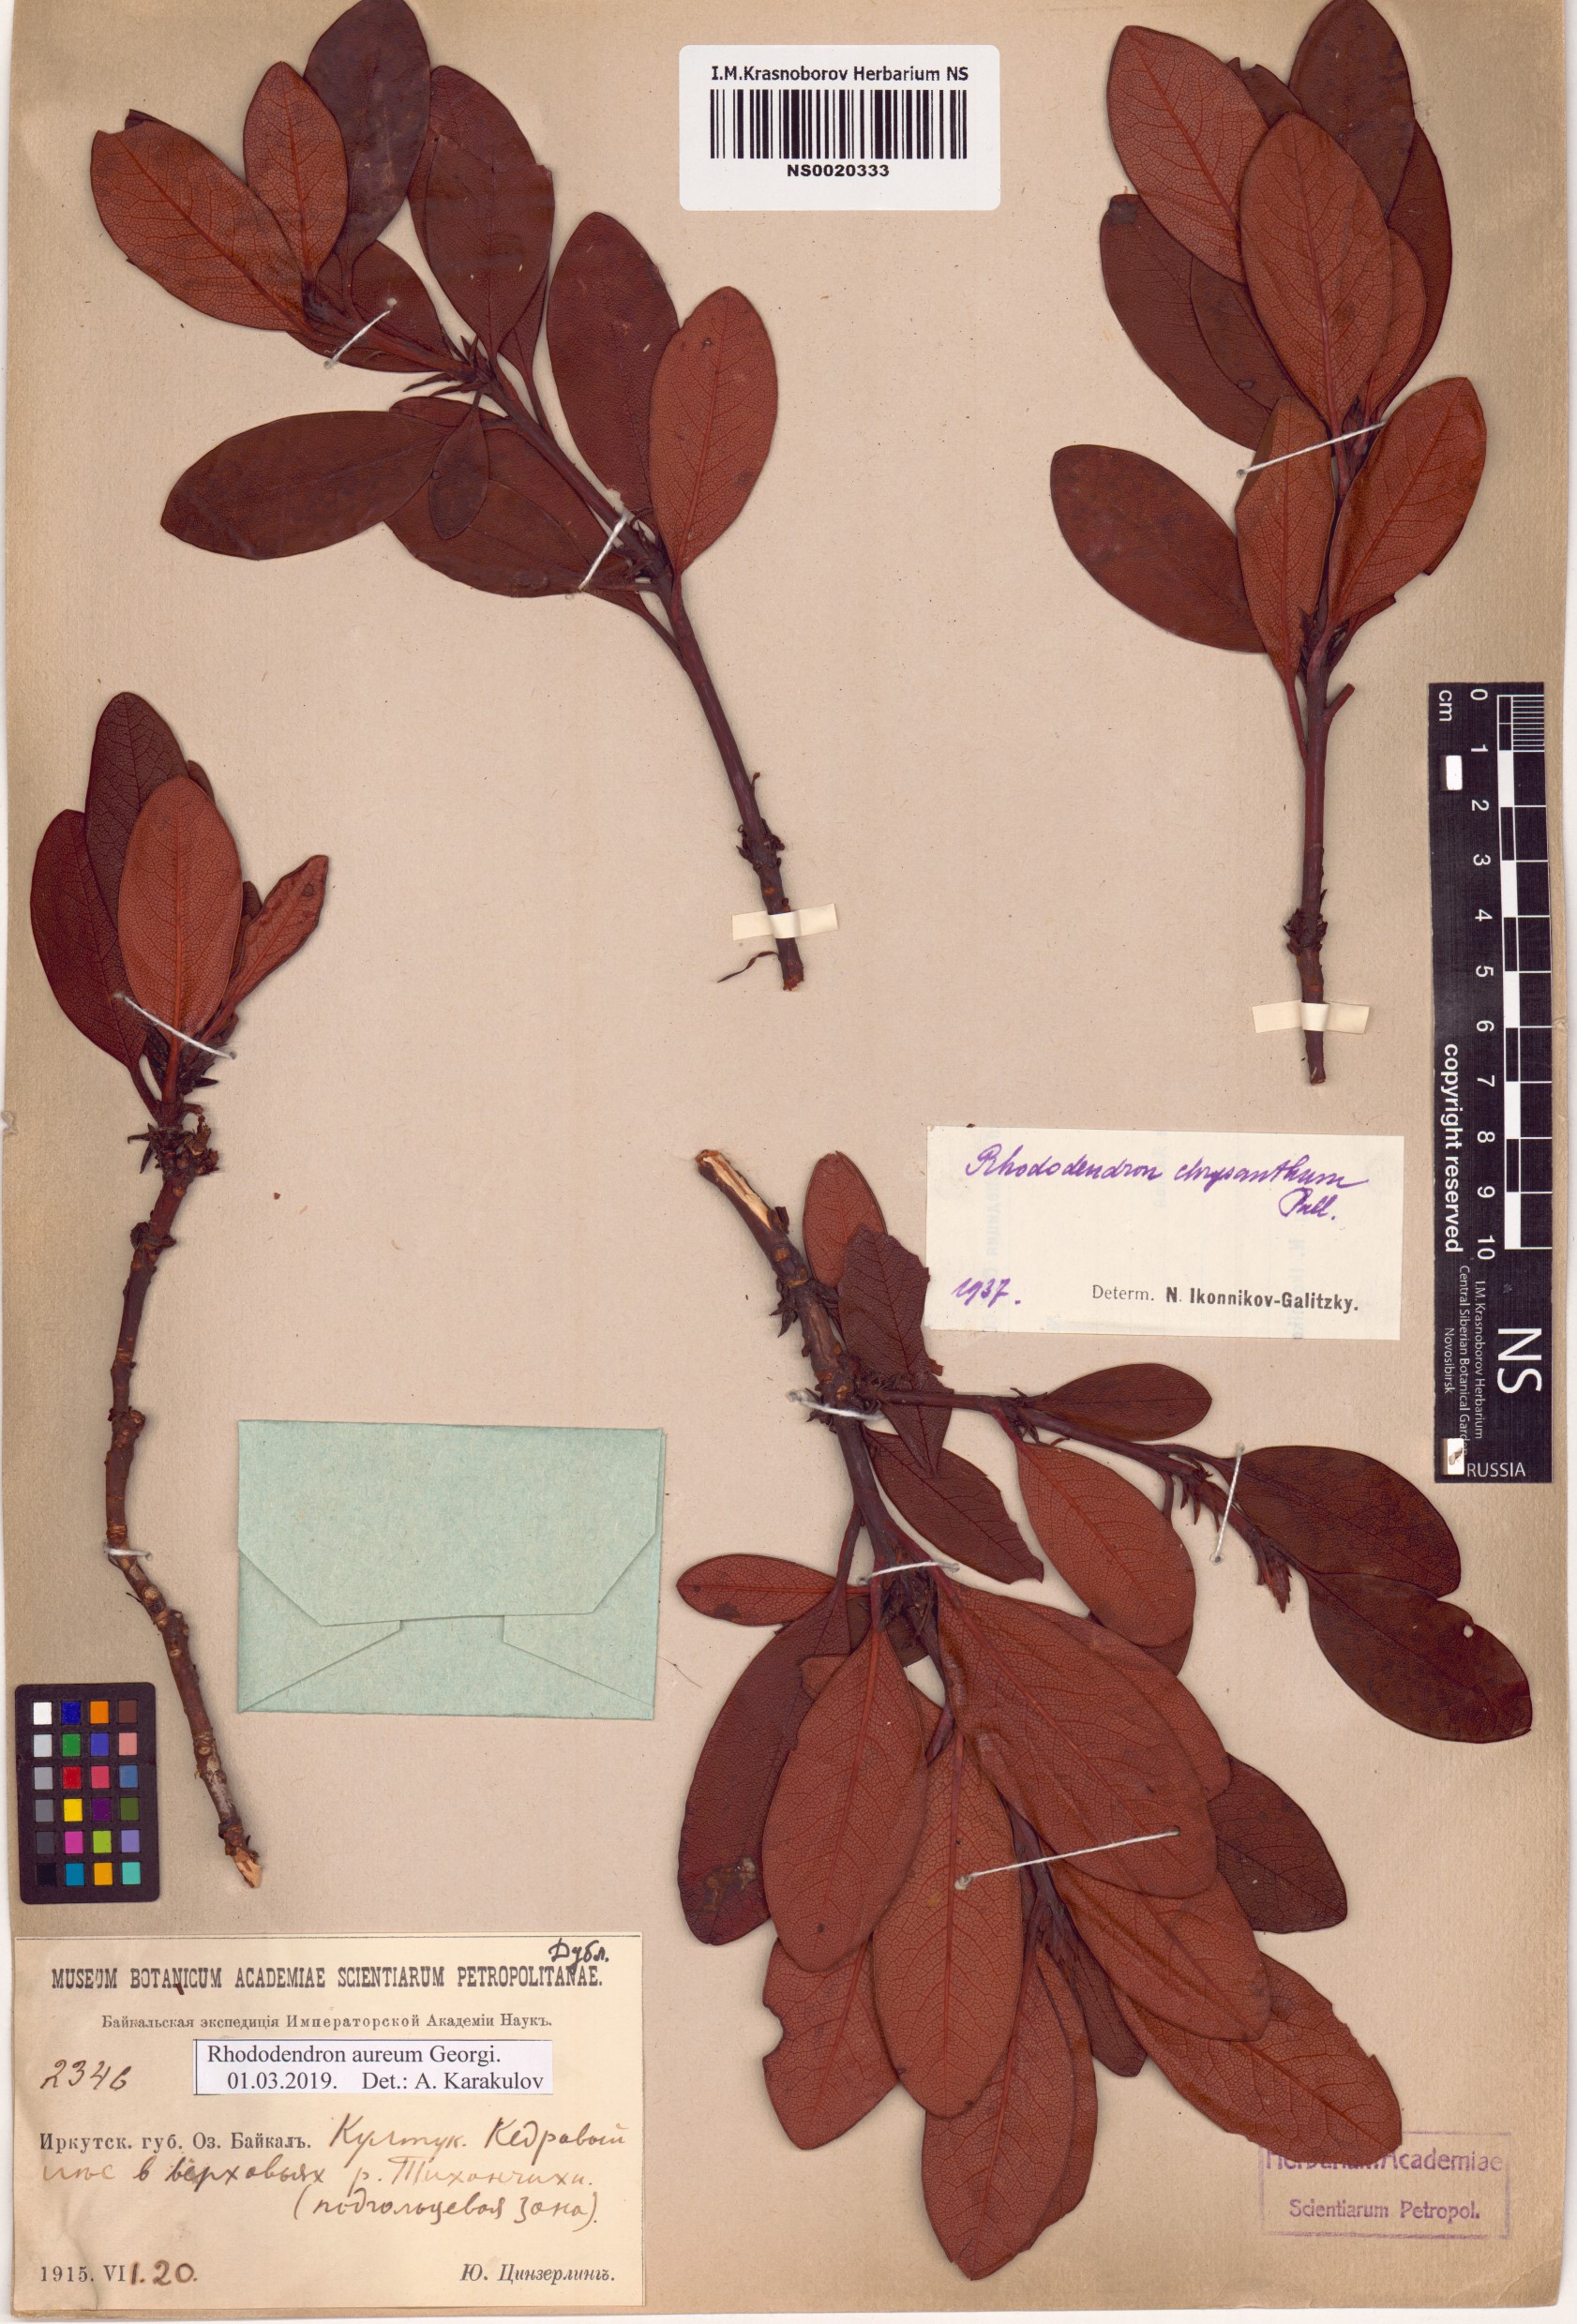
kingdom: Plantae
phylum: Tracheophyta
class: Magnoliopsida
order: Ericales
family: Ericaceae
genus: Rhododendron
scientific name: Rhododendron aureum
